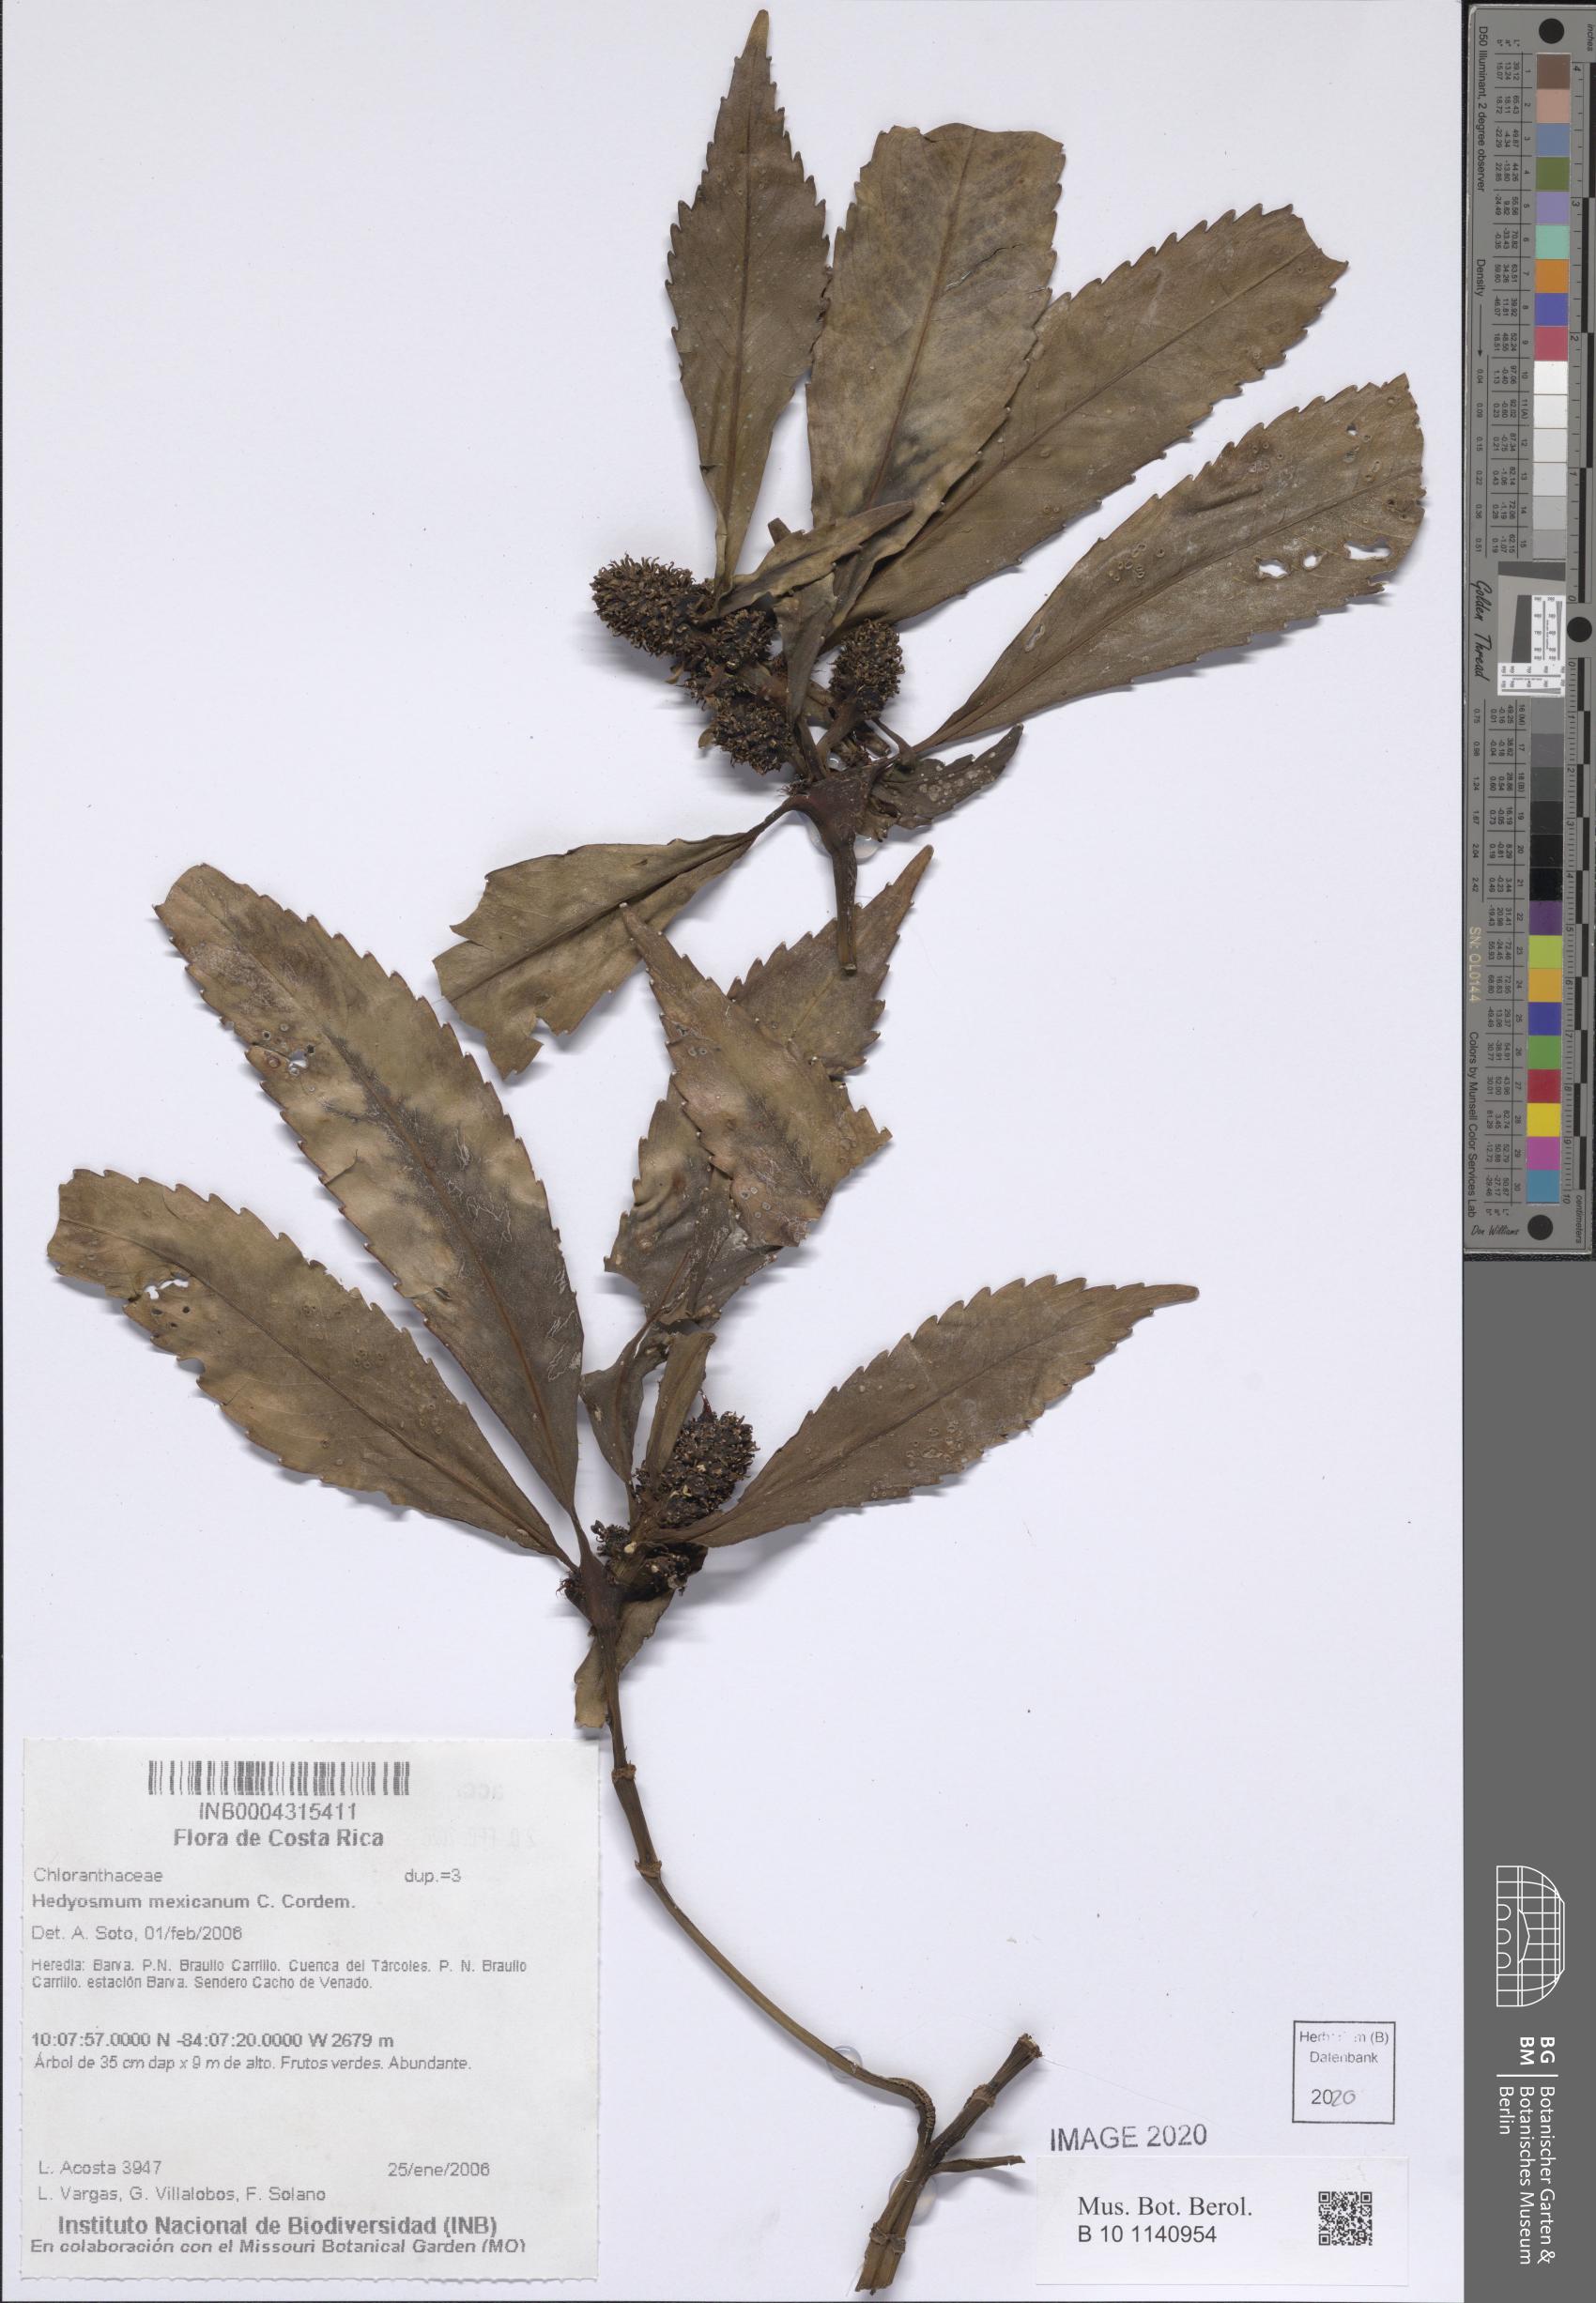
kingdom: Plantae
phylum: Tracheophyta
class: Magnoliopsida
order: Chloranthales
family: Chloranthaceae
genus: Hedyosmum
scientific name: Hedyosmum mexicanum
